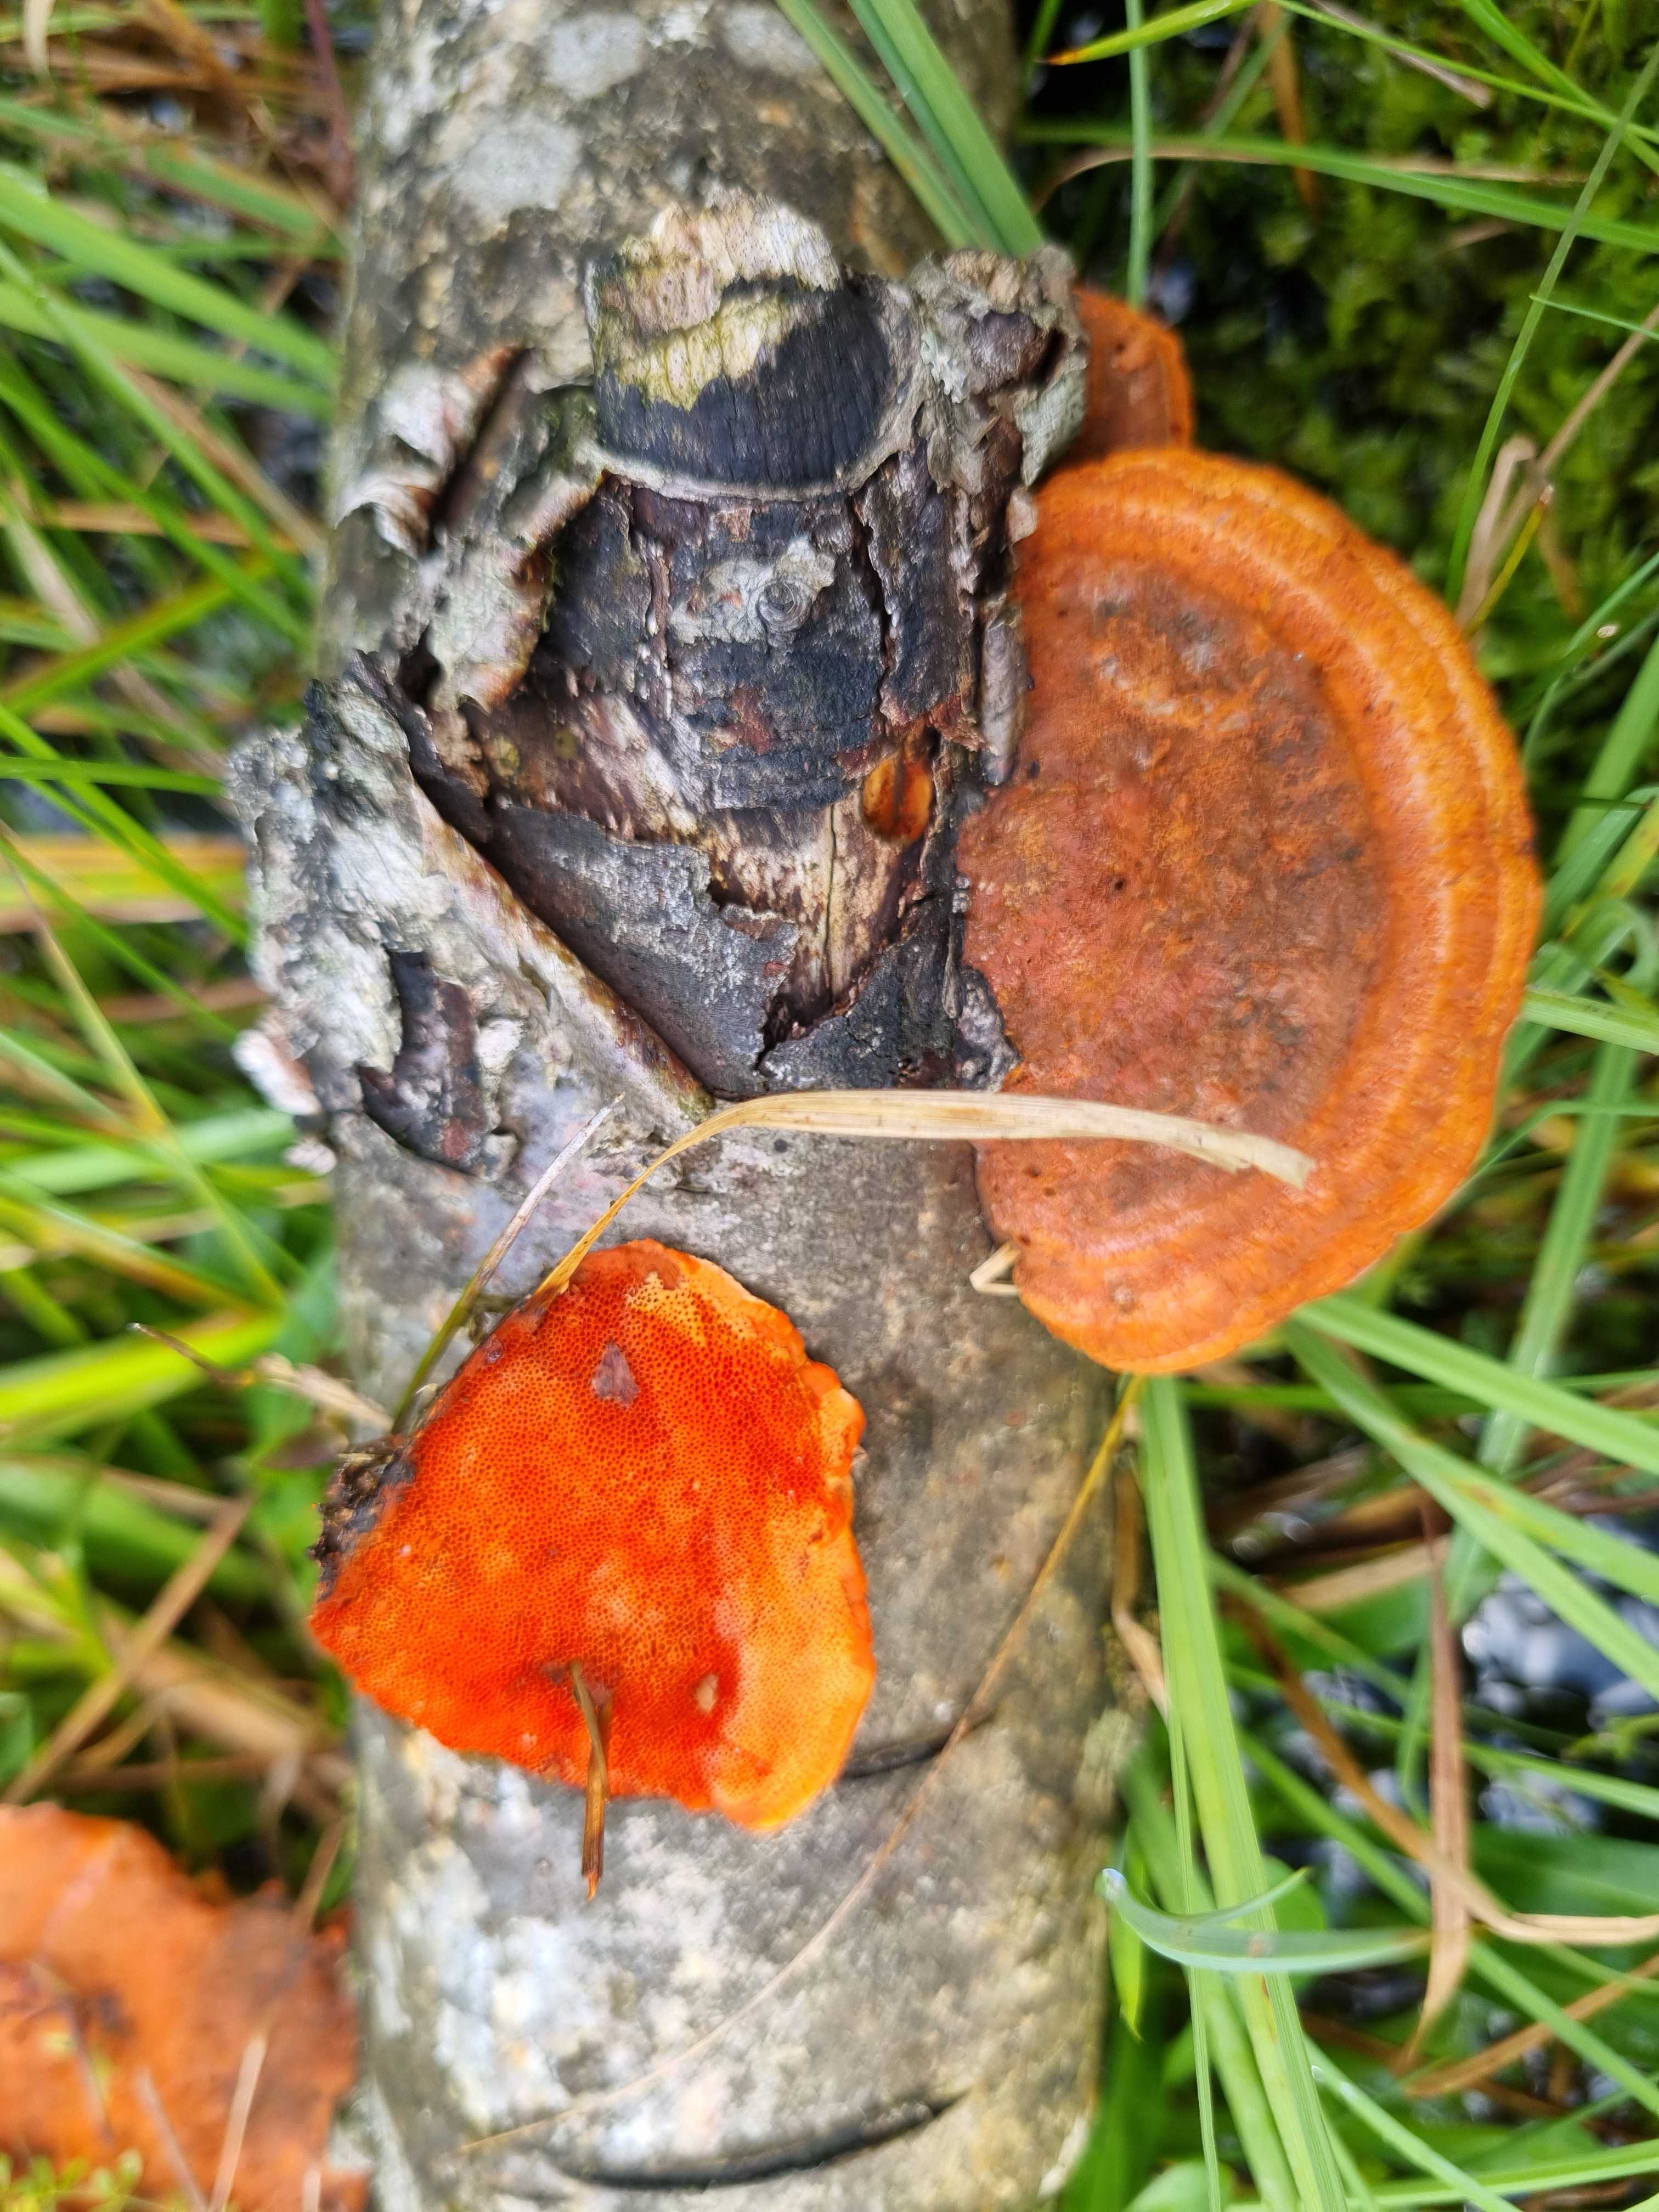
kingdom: Fungi
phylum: Basidiomycota
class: Agaricomycetes
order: Polyporales
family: Polyporaceae
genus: Trametes
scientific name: Trametes cinnabarina
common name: cinnoberporesvamp
